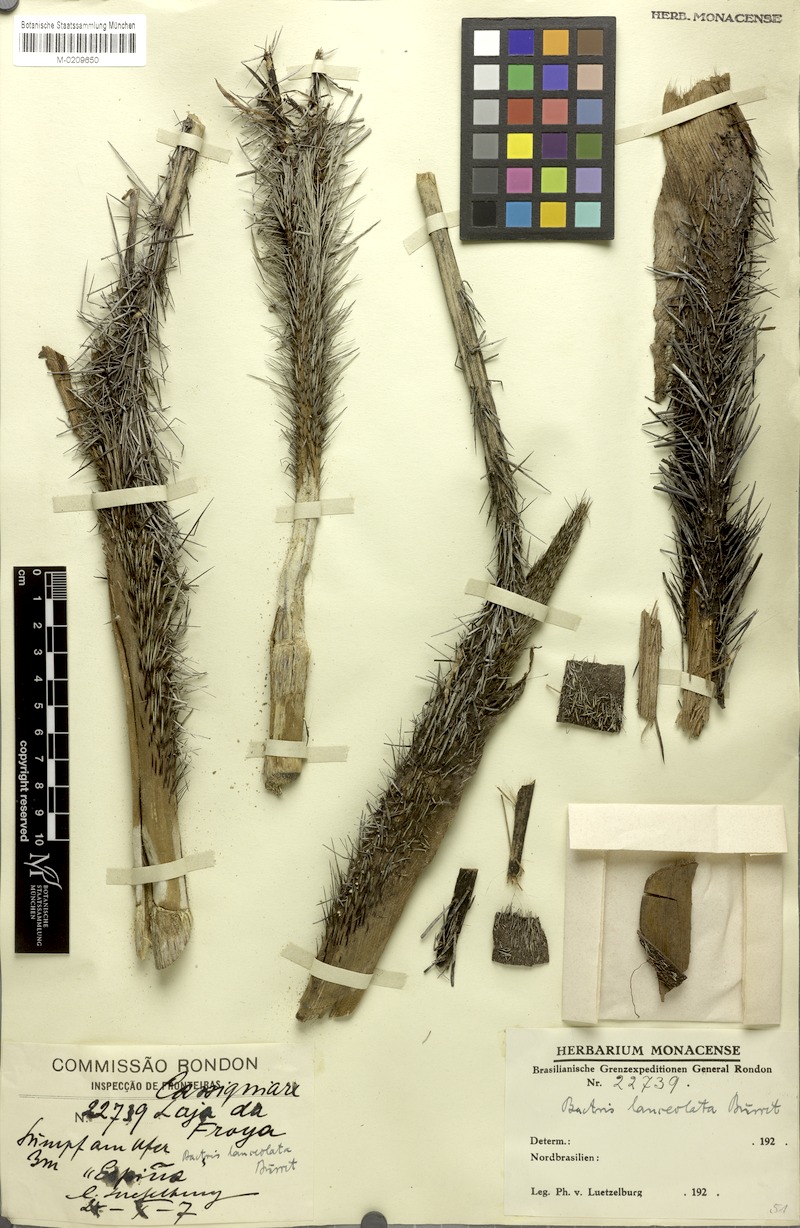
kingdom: Plantae
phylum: Tracheophyta
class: Liliopsida
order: Arecales
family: Arecaceae
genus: Bactris
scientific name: Bactris campestris
